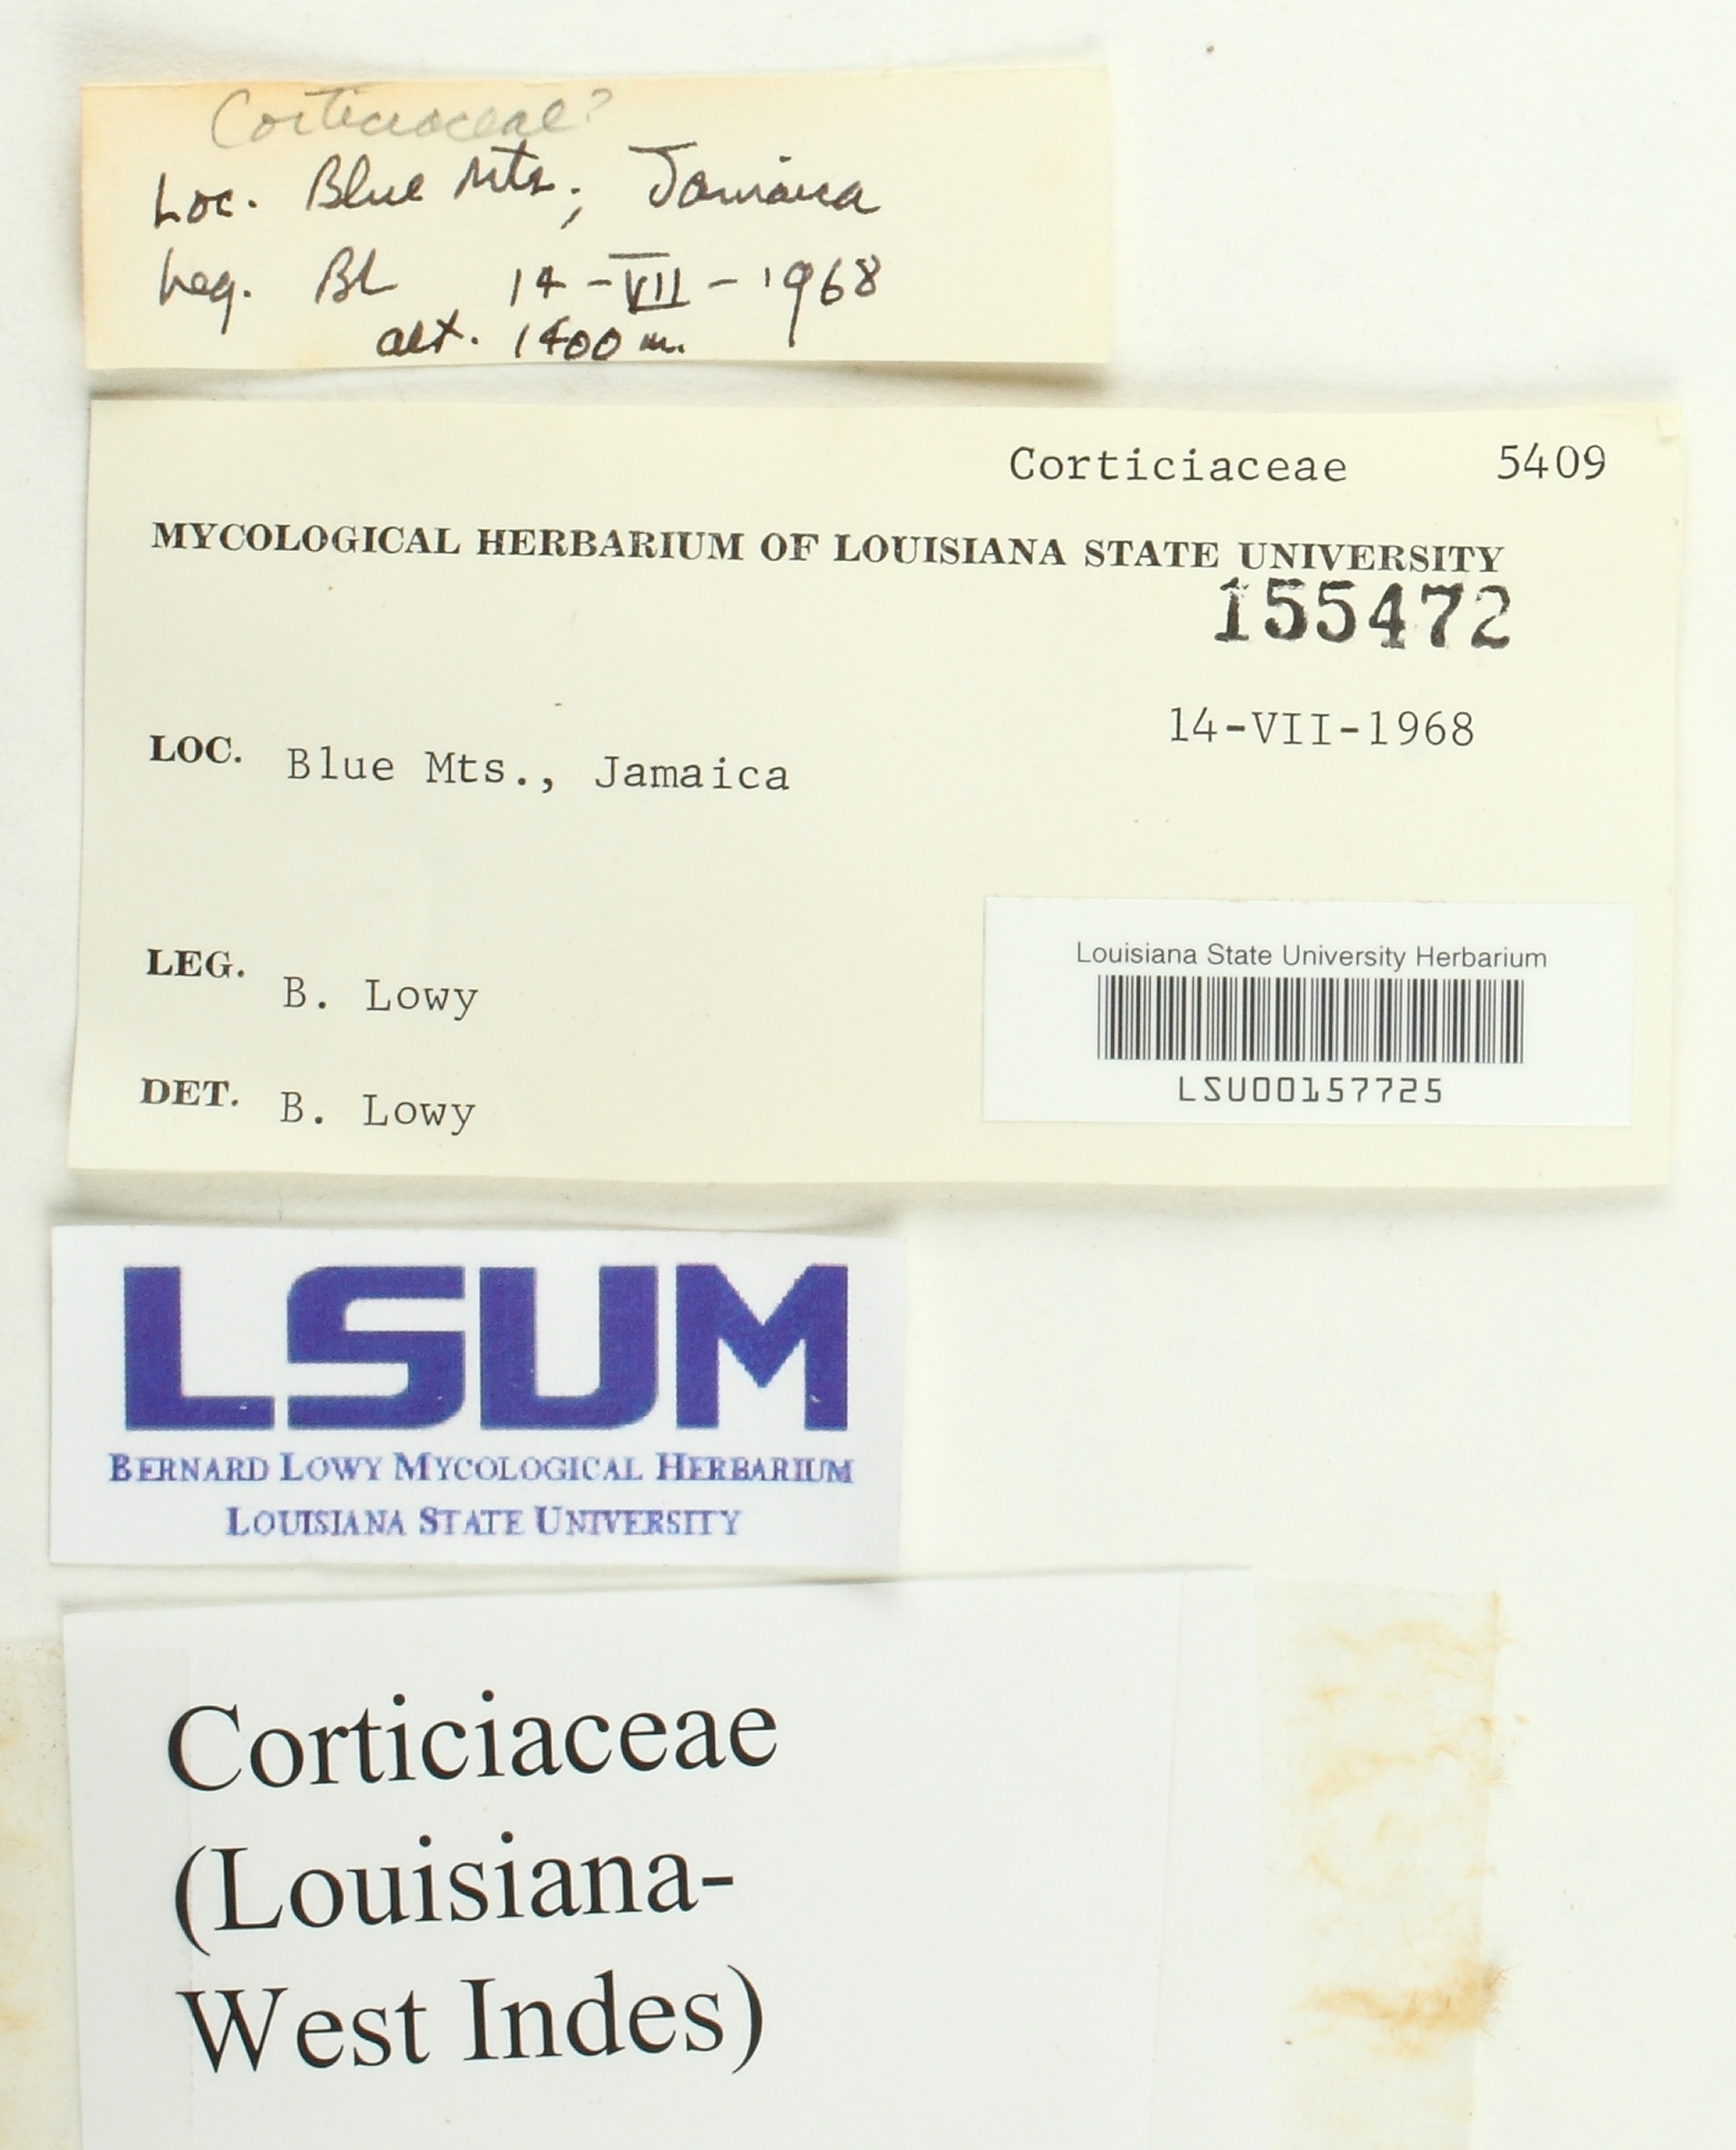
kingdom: Fungi
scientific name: Fungi
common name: Fungi
